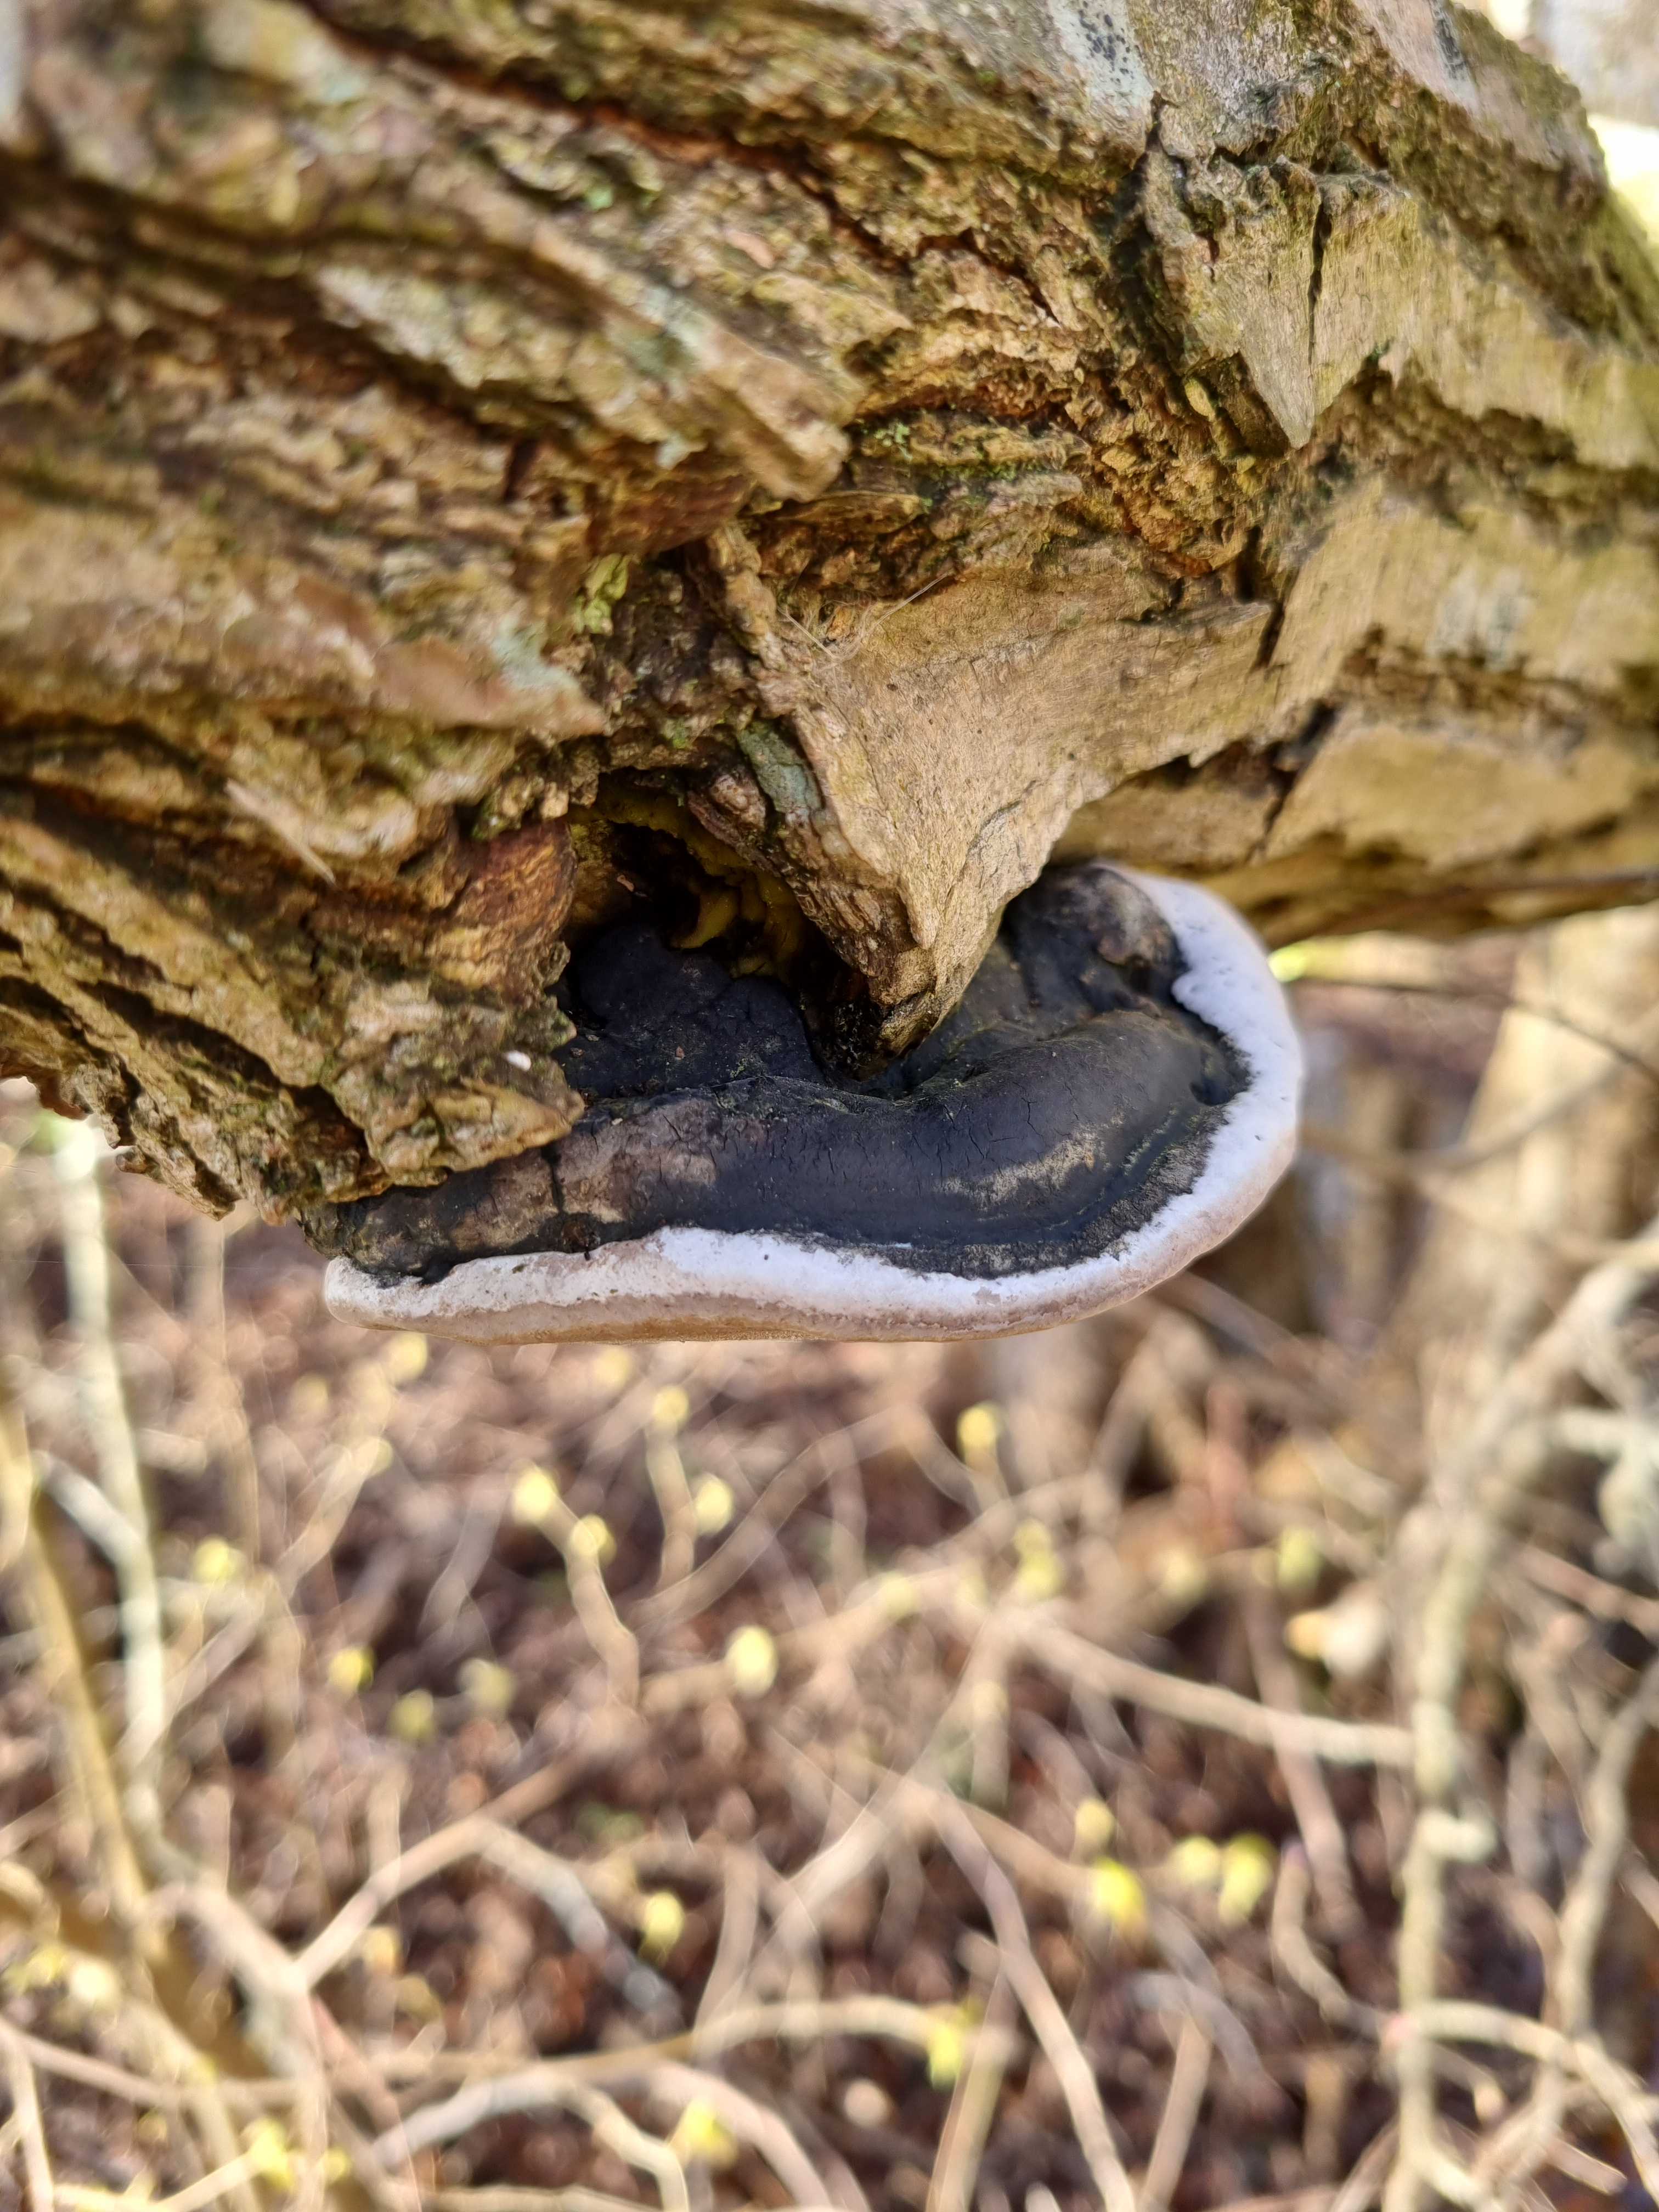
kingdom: Fungi
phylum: Basidiomycota
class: Agaricomycetes
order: Hymenochaetales
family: Hymenochaetaceae
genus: Phellinus
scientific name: Phellinus igniarius
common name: almindelig ildporesvamp
